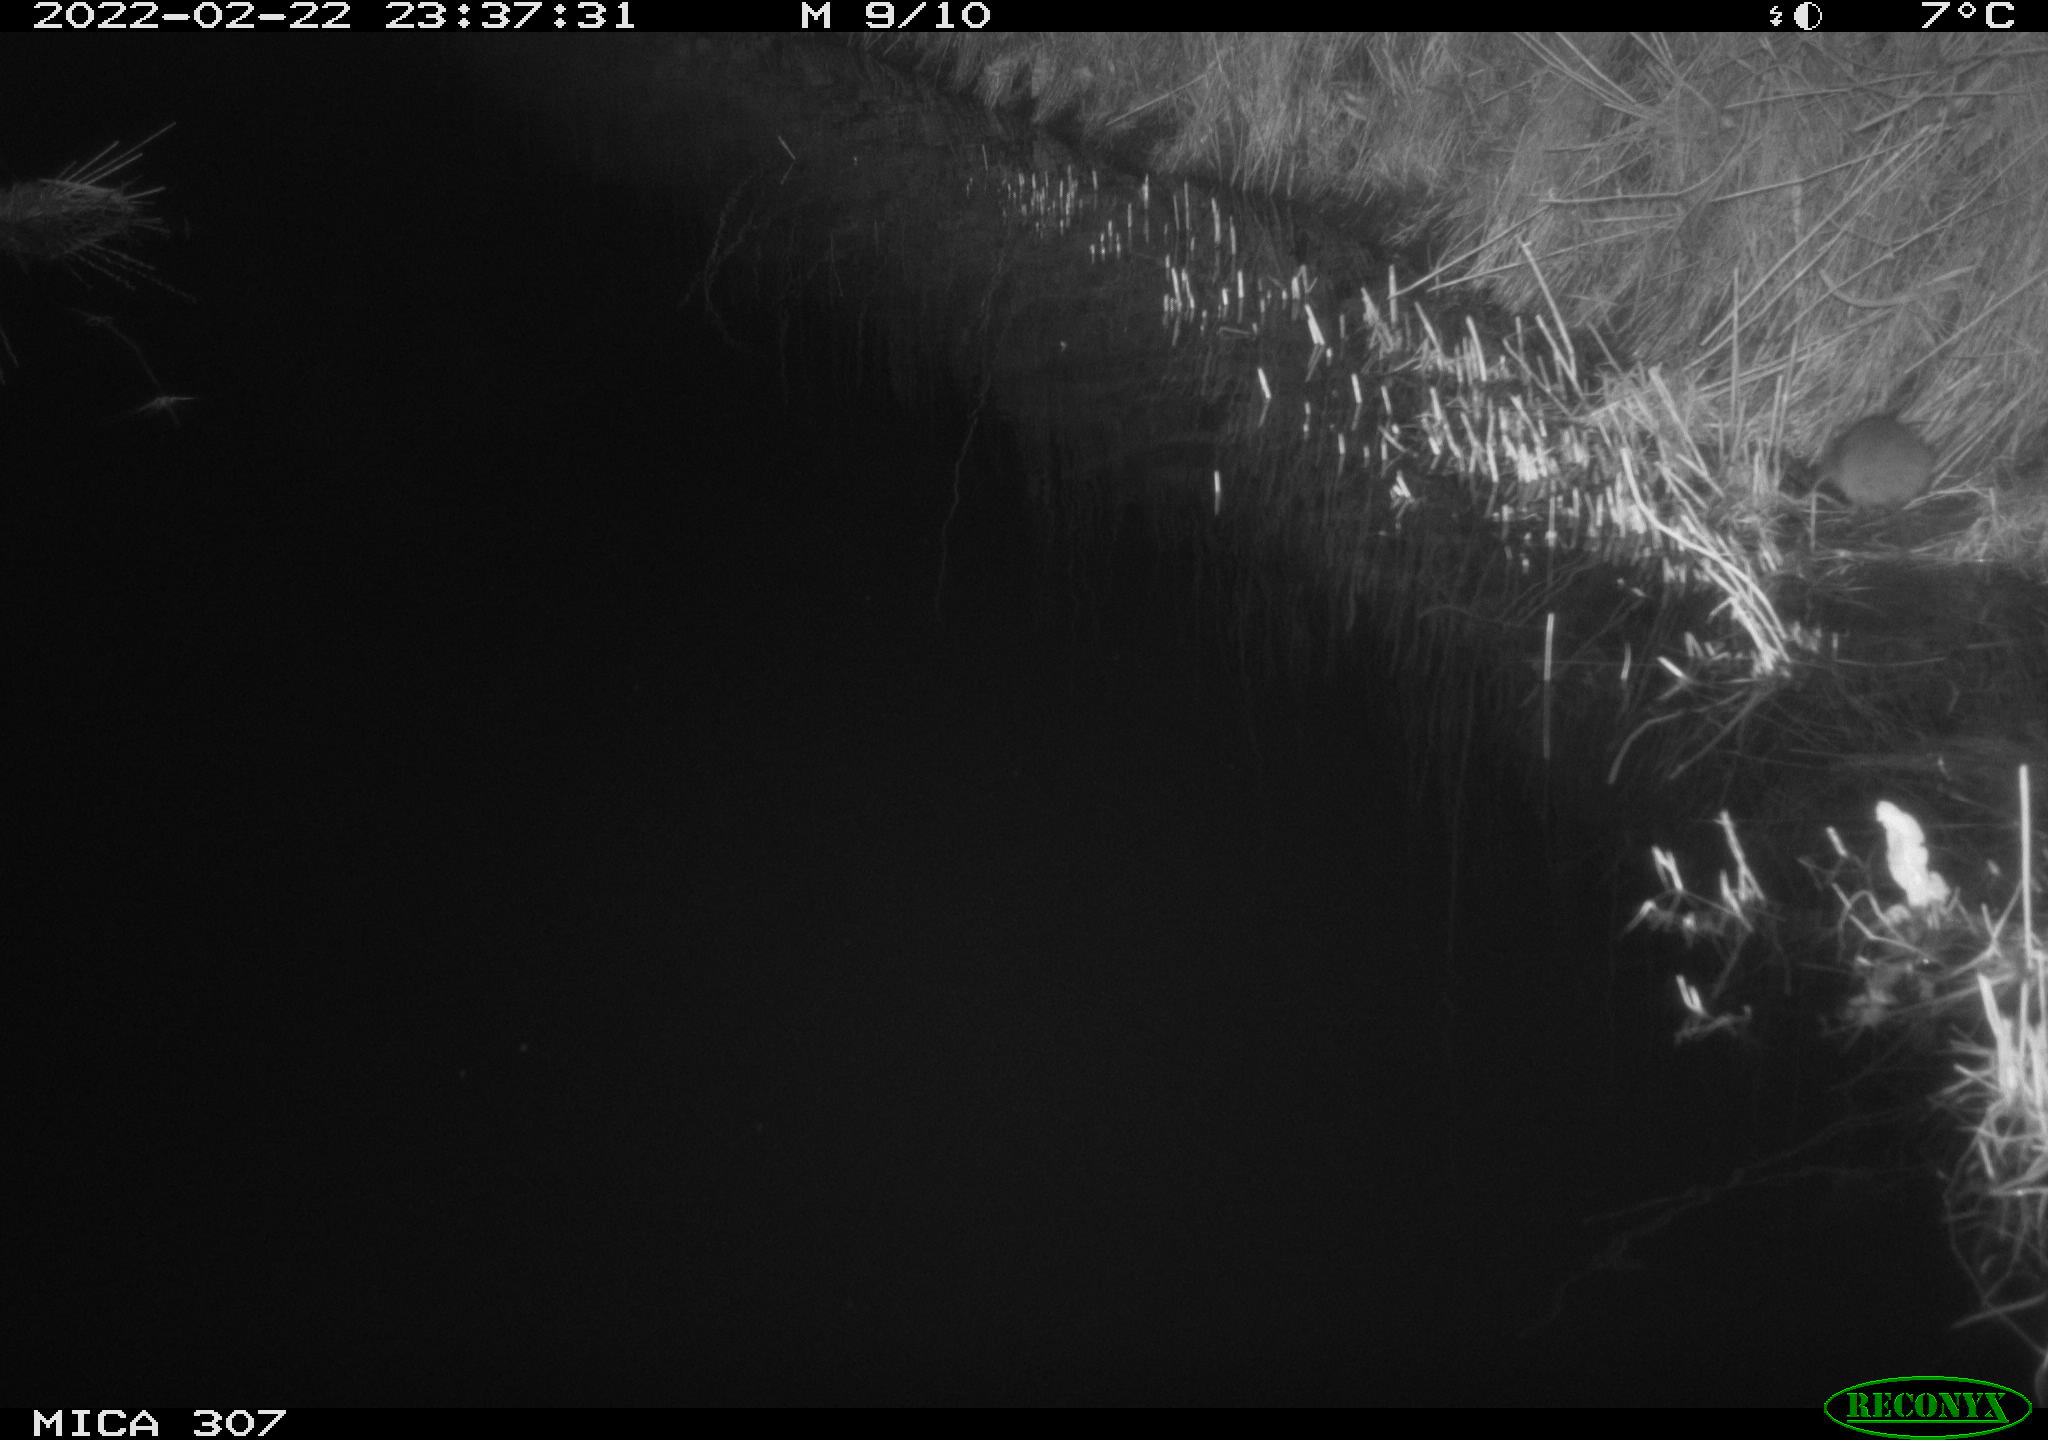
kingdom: Animalia
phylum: Chordata
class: Mammalia
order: Rodentia
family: Muridae
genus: Rattus
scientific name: Rattus norvegicus
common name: Brown rat
